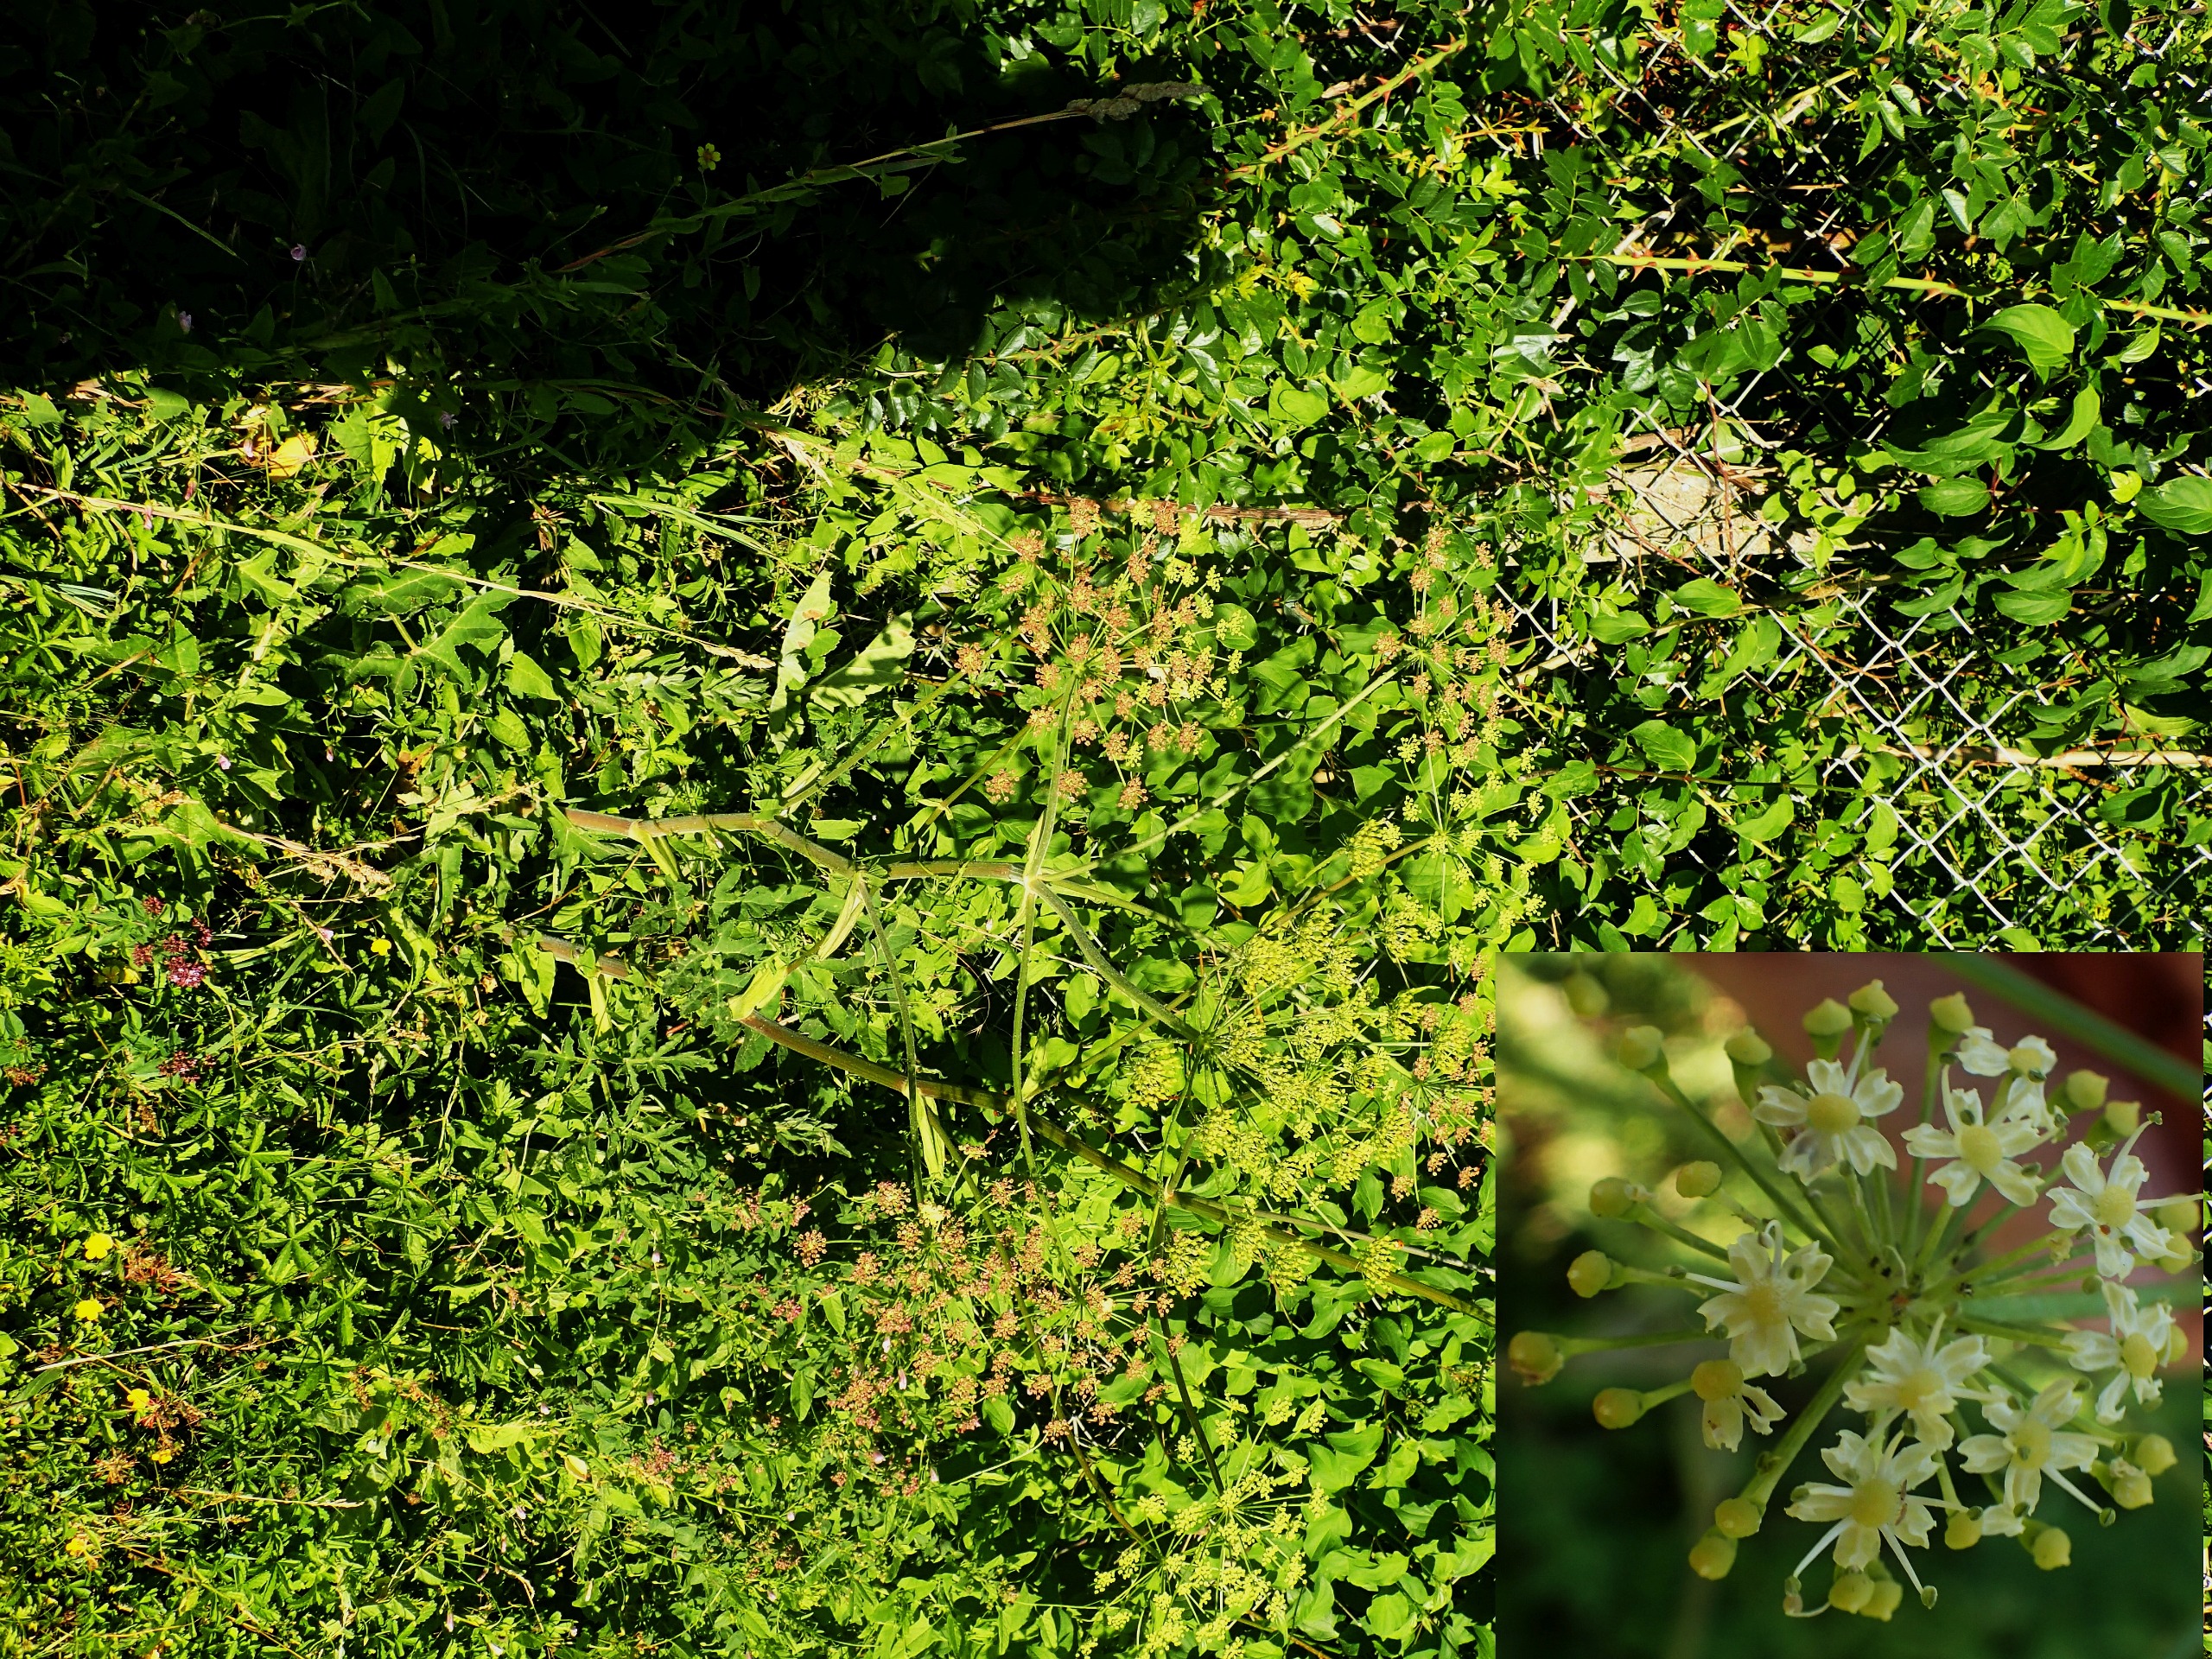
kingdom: Plantae
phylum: Tracheophyta
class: Magnoliopsida
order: Apiales
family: Apiaceae
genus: Heracleum
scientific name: Heracleum sphondylium
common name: Grønblomstret bjørneklo
